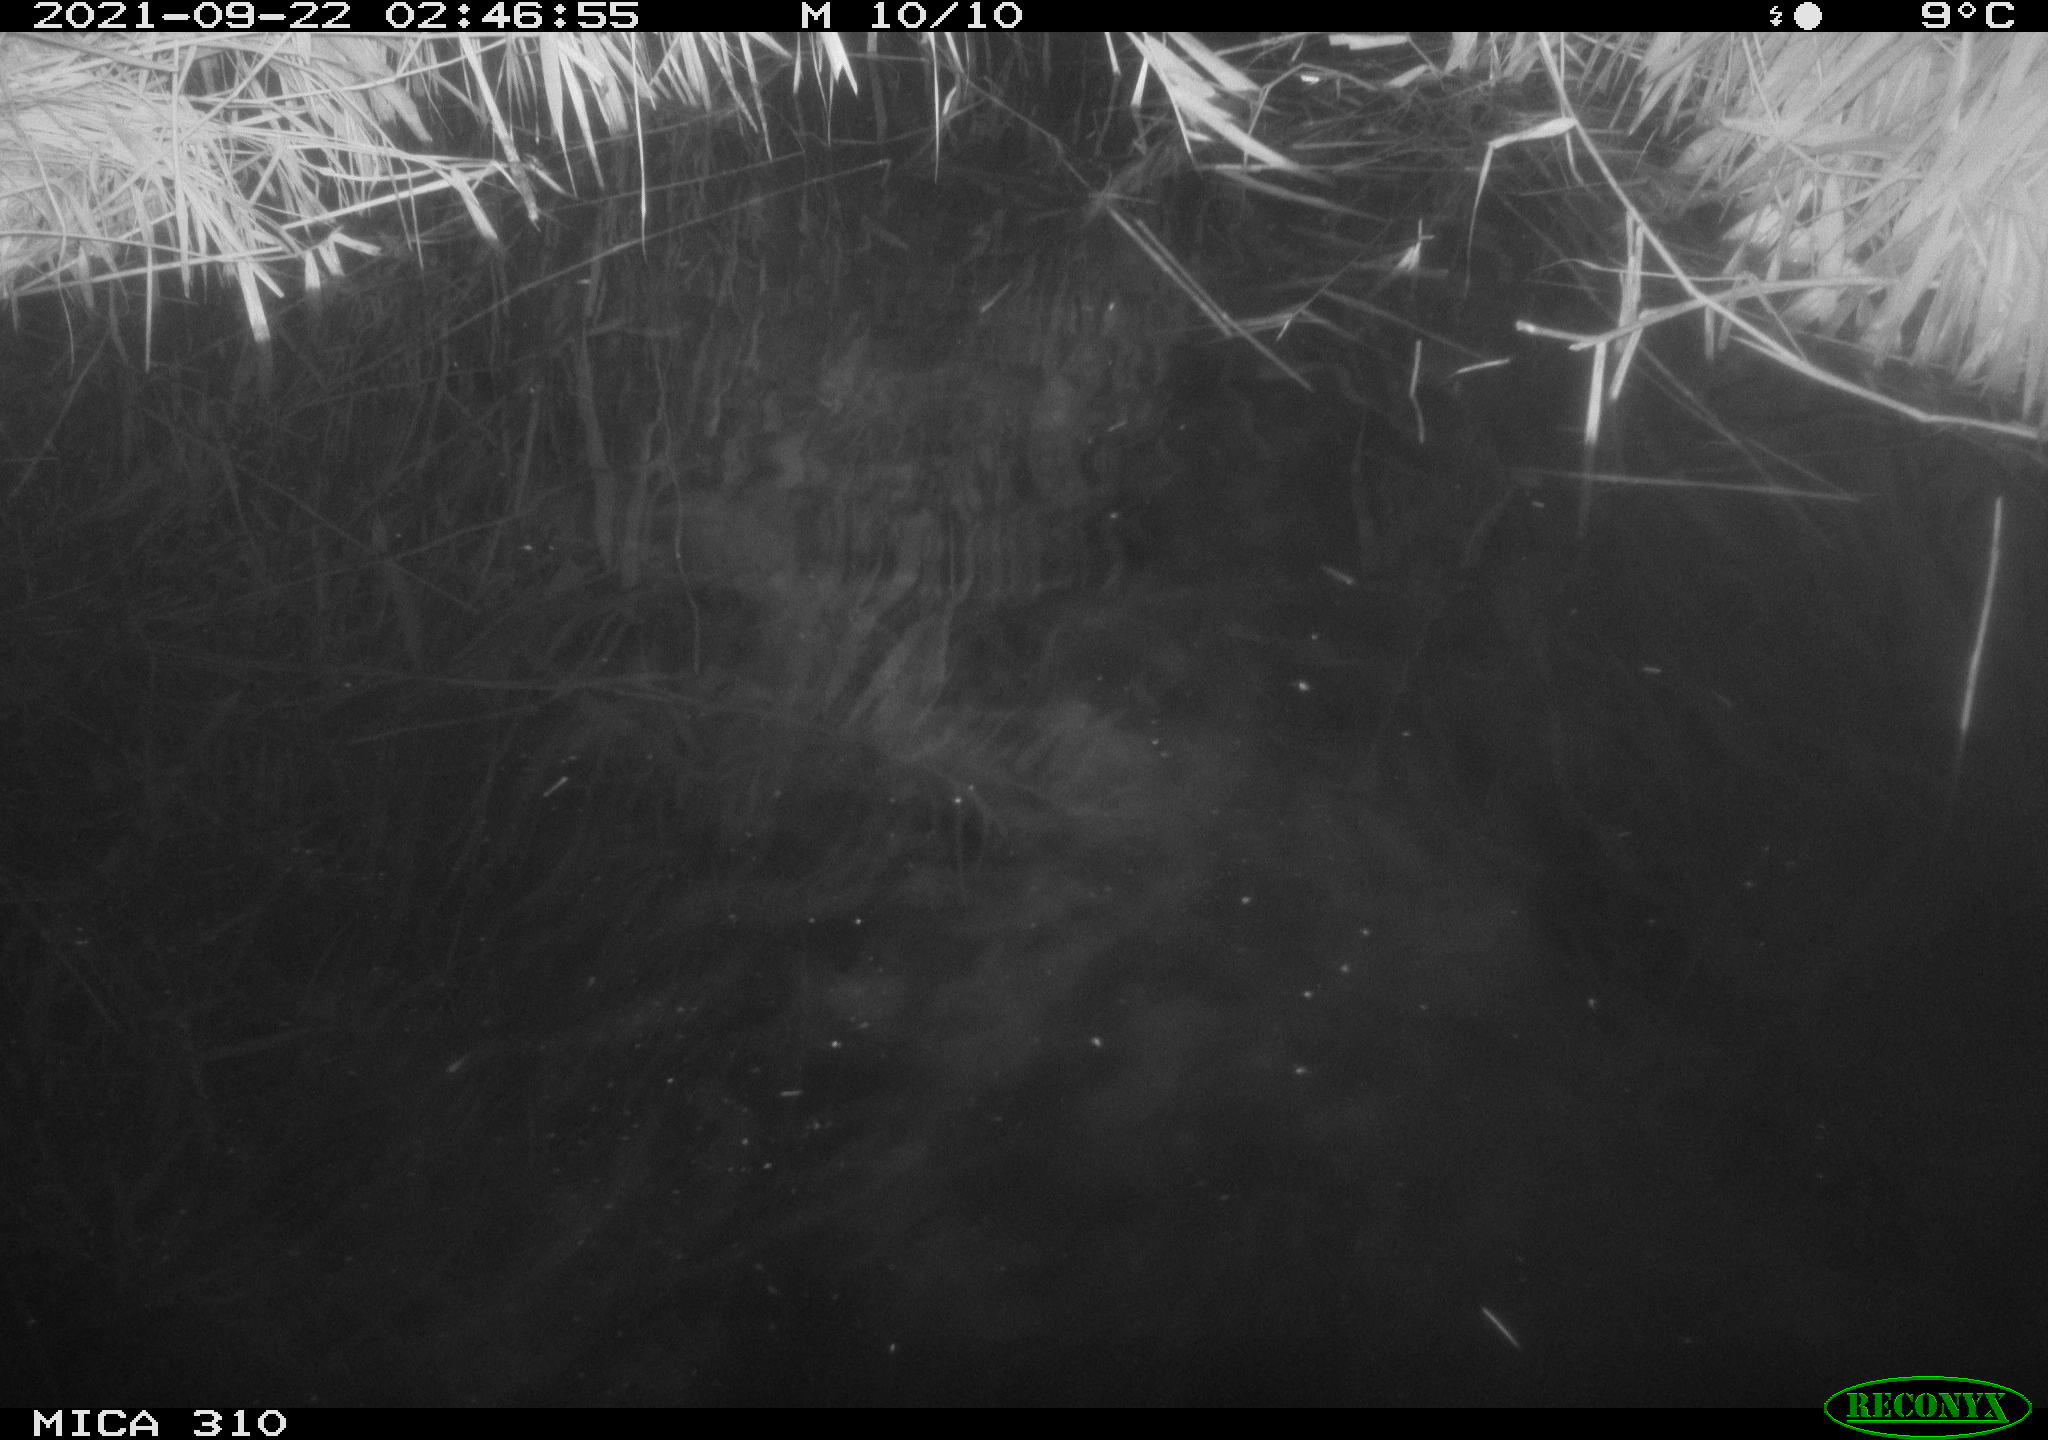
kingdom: Animalia
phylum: Chordata
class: Aves
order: Anseriformes
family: Anatidae
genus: Mareca
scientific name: Mareca strepera
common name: Gadwall
